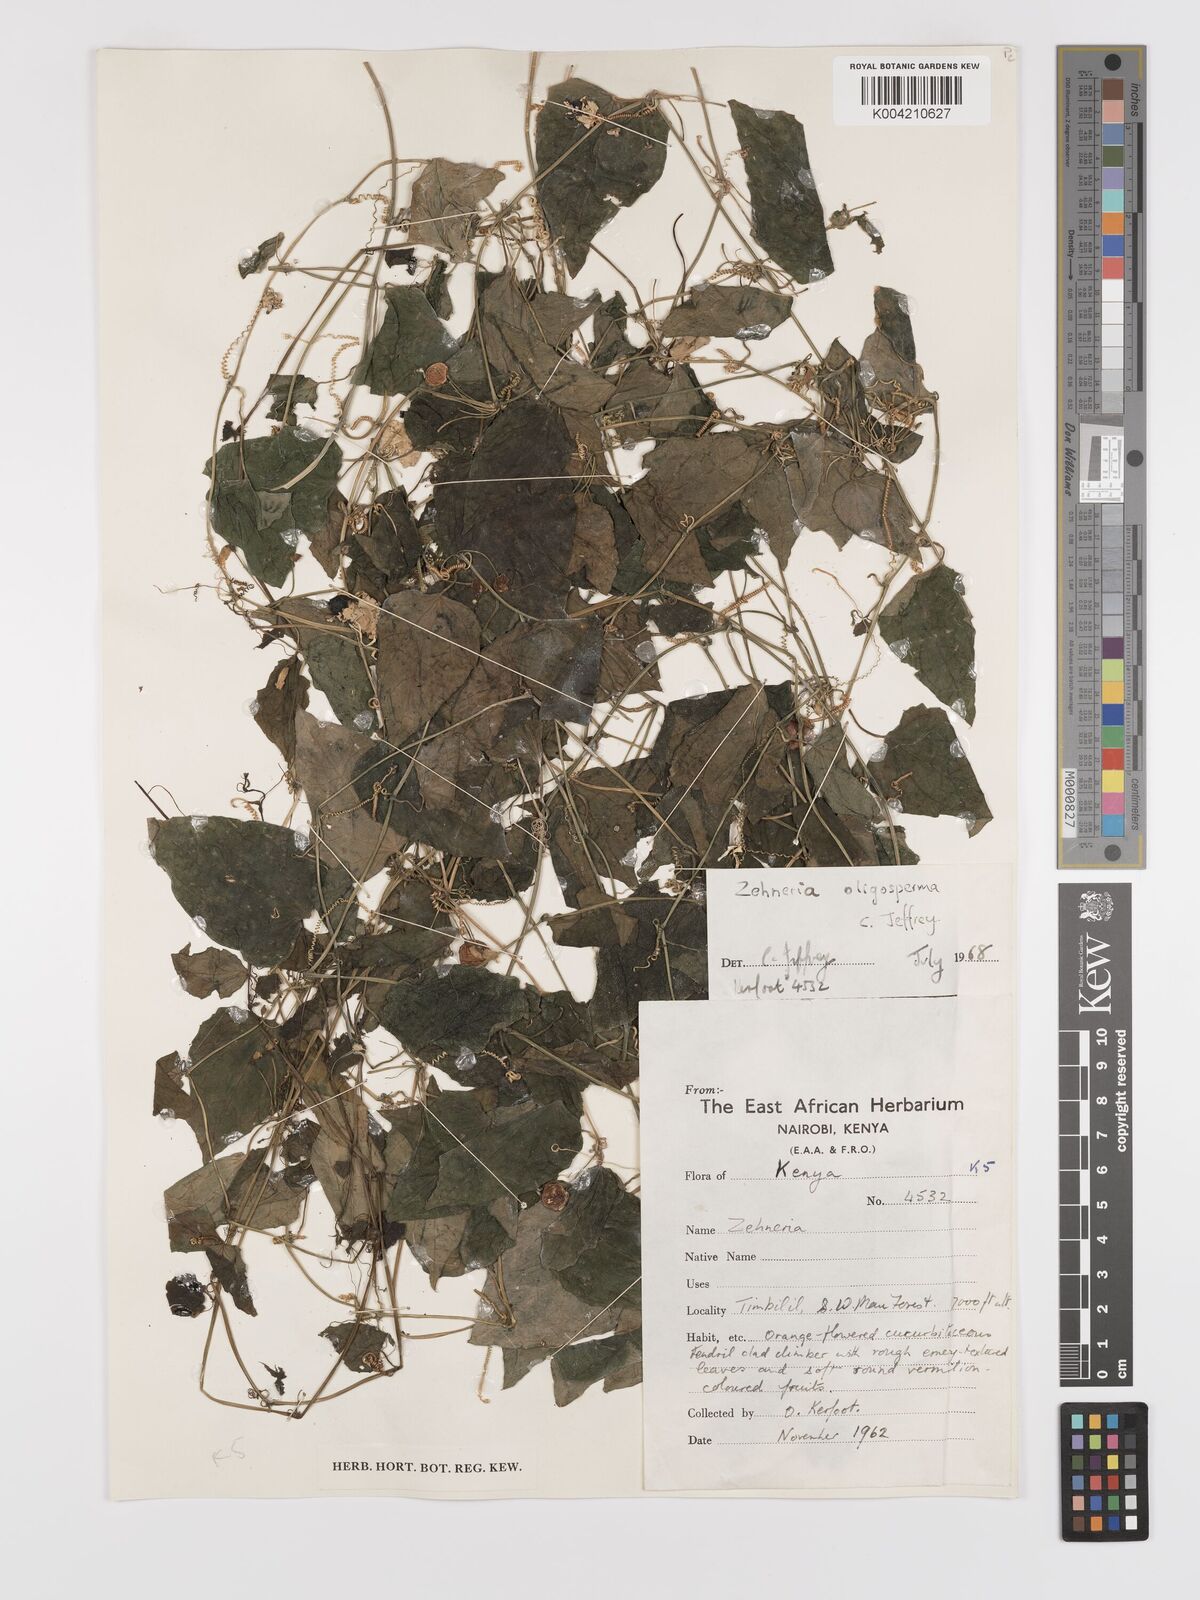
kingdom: Plantae
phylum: Tracheophyta
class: Magnoliopsida
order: Cucurbitales
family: Cucurbitaceae
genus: Zehneria
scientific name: Zehneria oligosperma
